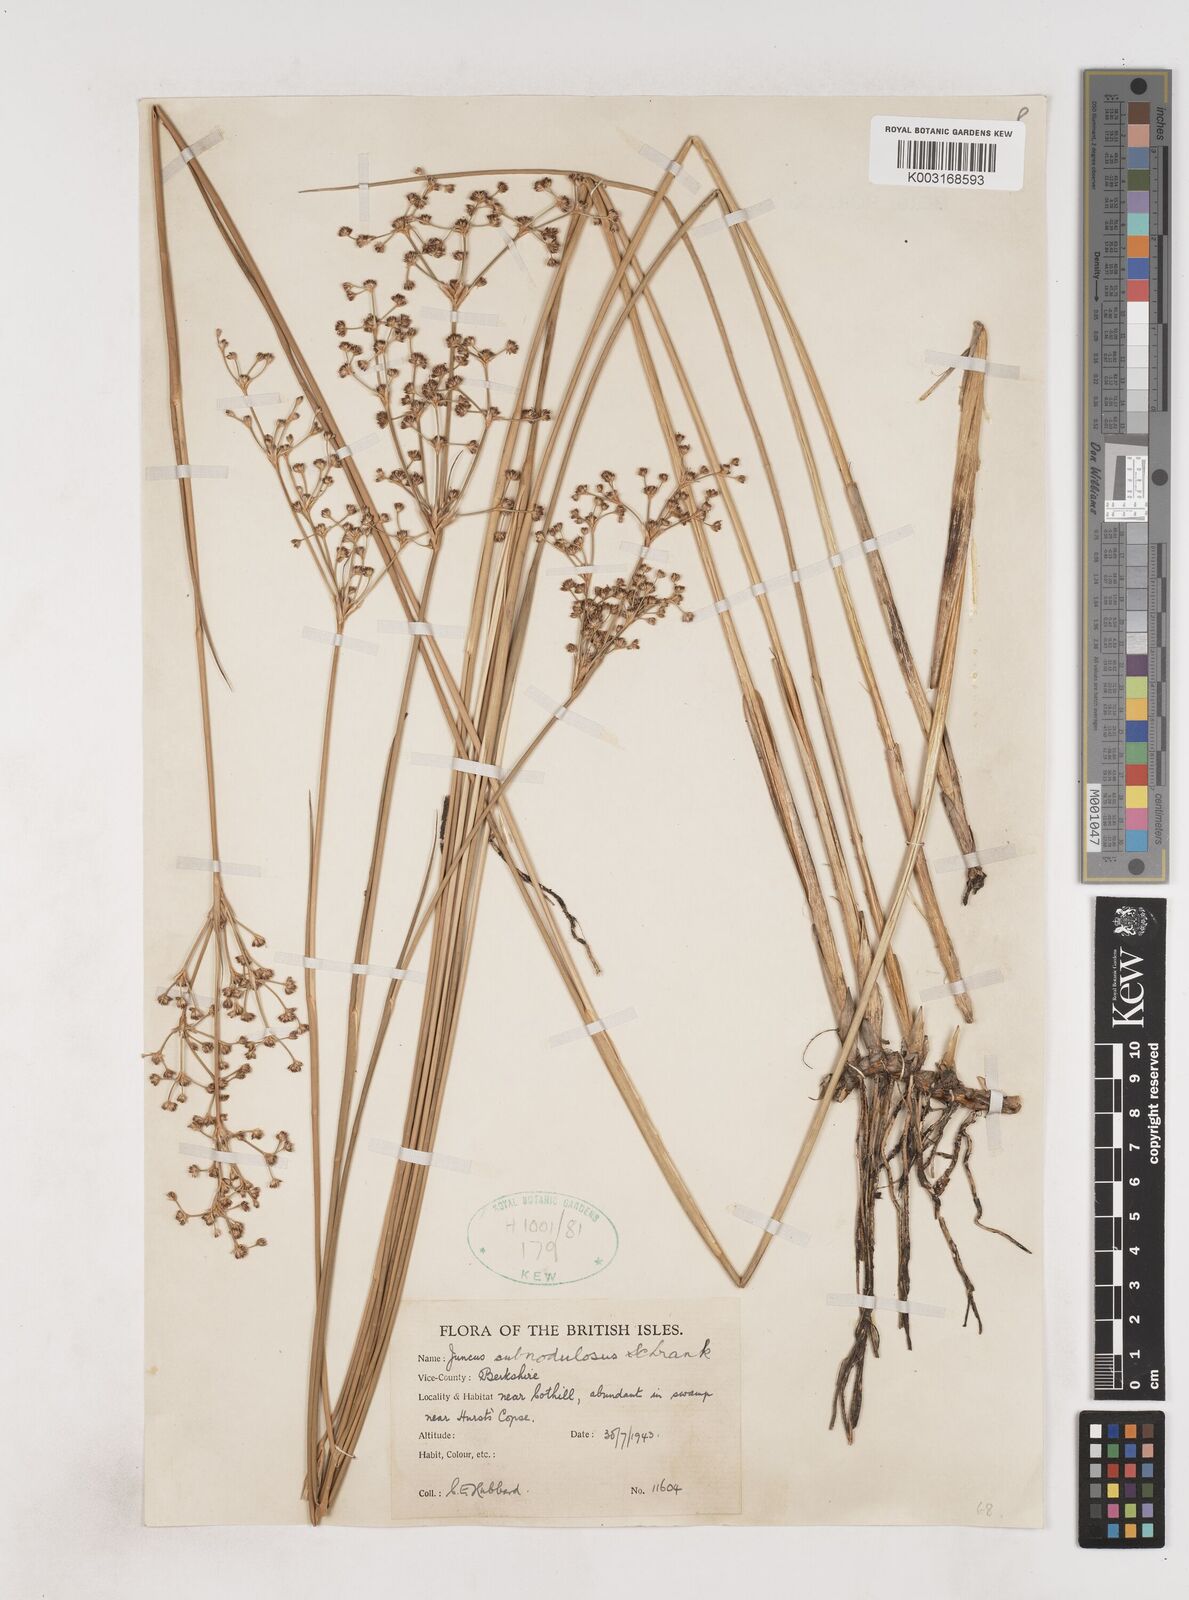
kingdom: Plantae
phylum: Tracheophyta
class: Liliopsida
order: Poales
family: Juncaceae
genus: Juncus
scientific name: Juncus subnodulosus
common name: Blunt-flowered rush
